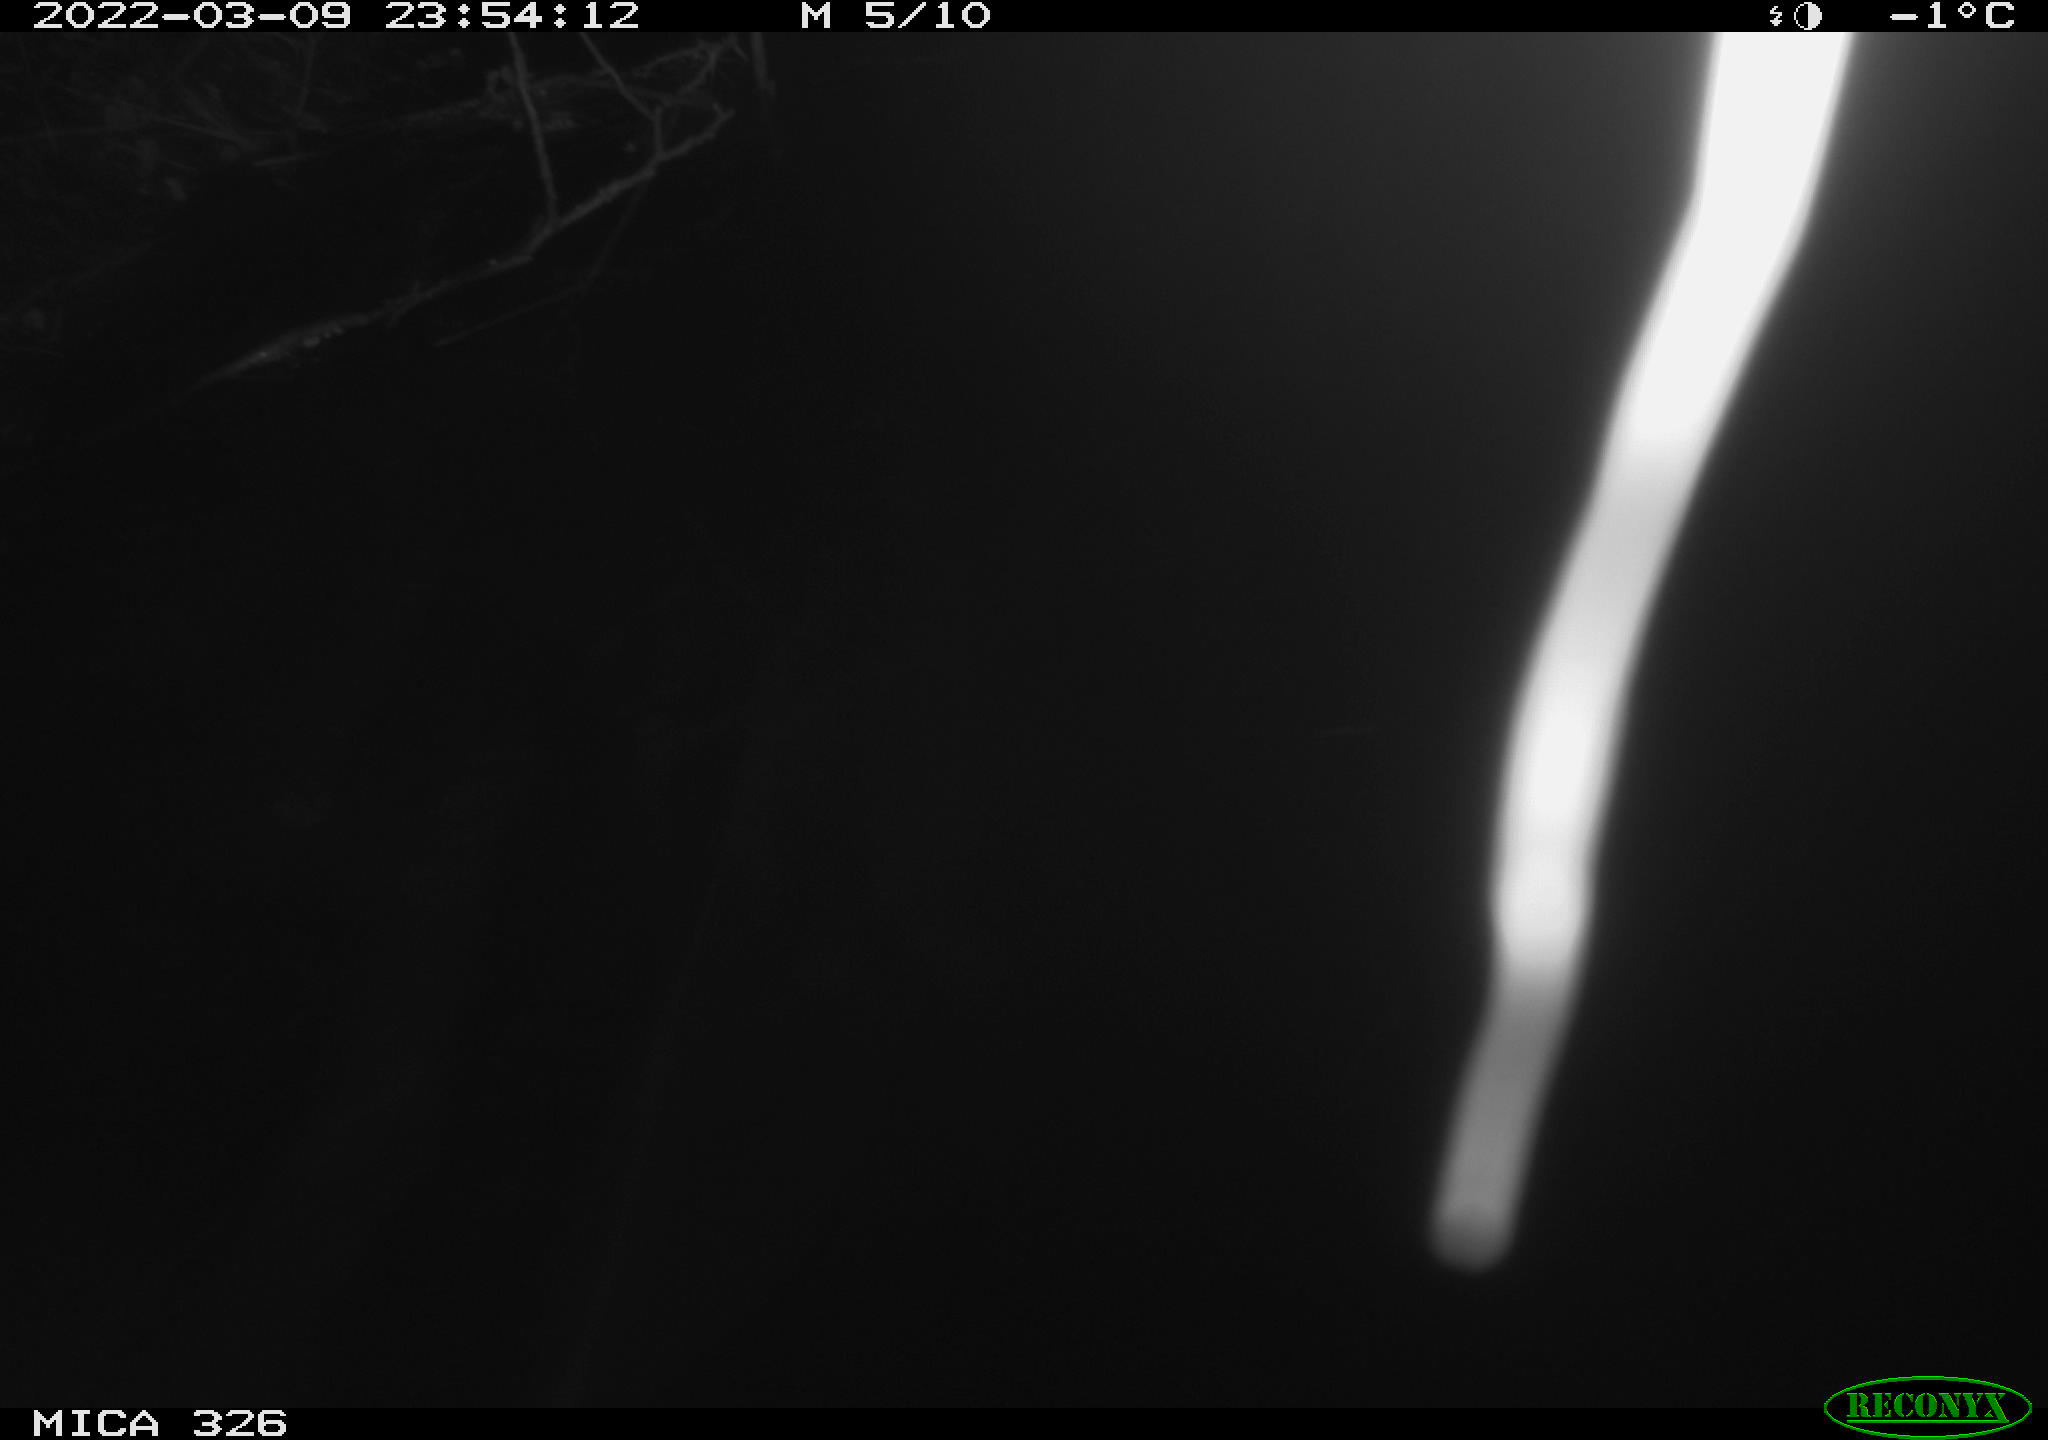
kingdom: Animalia
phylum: Chordata
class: Mammalia
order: Rodentia
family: Muridae
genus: Rattus
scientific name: Rattus norvegicus
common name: Brown rat
